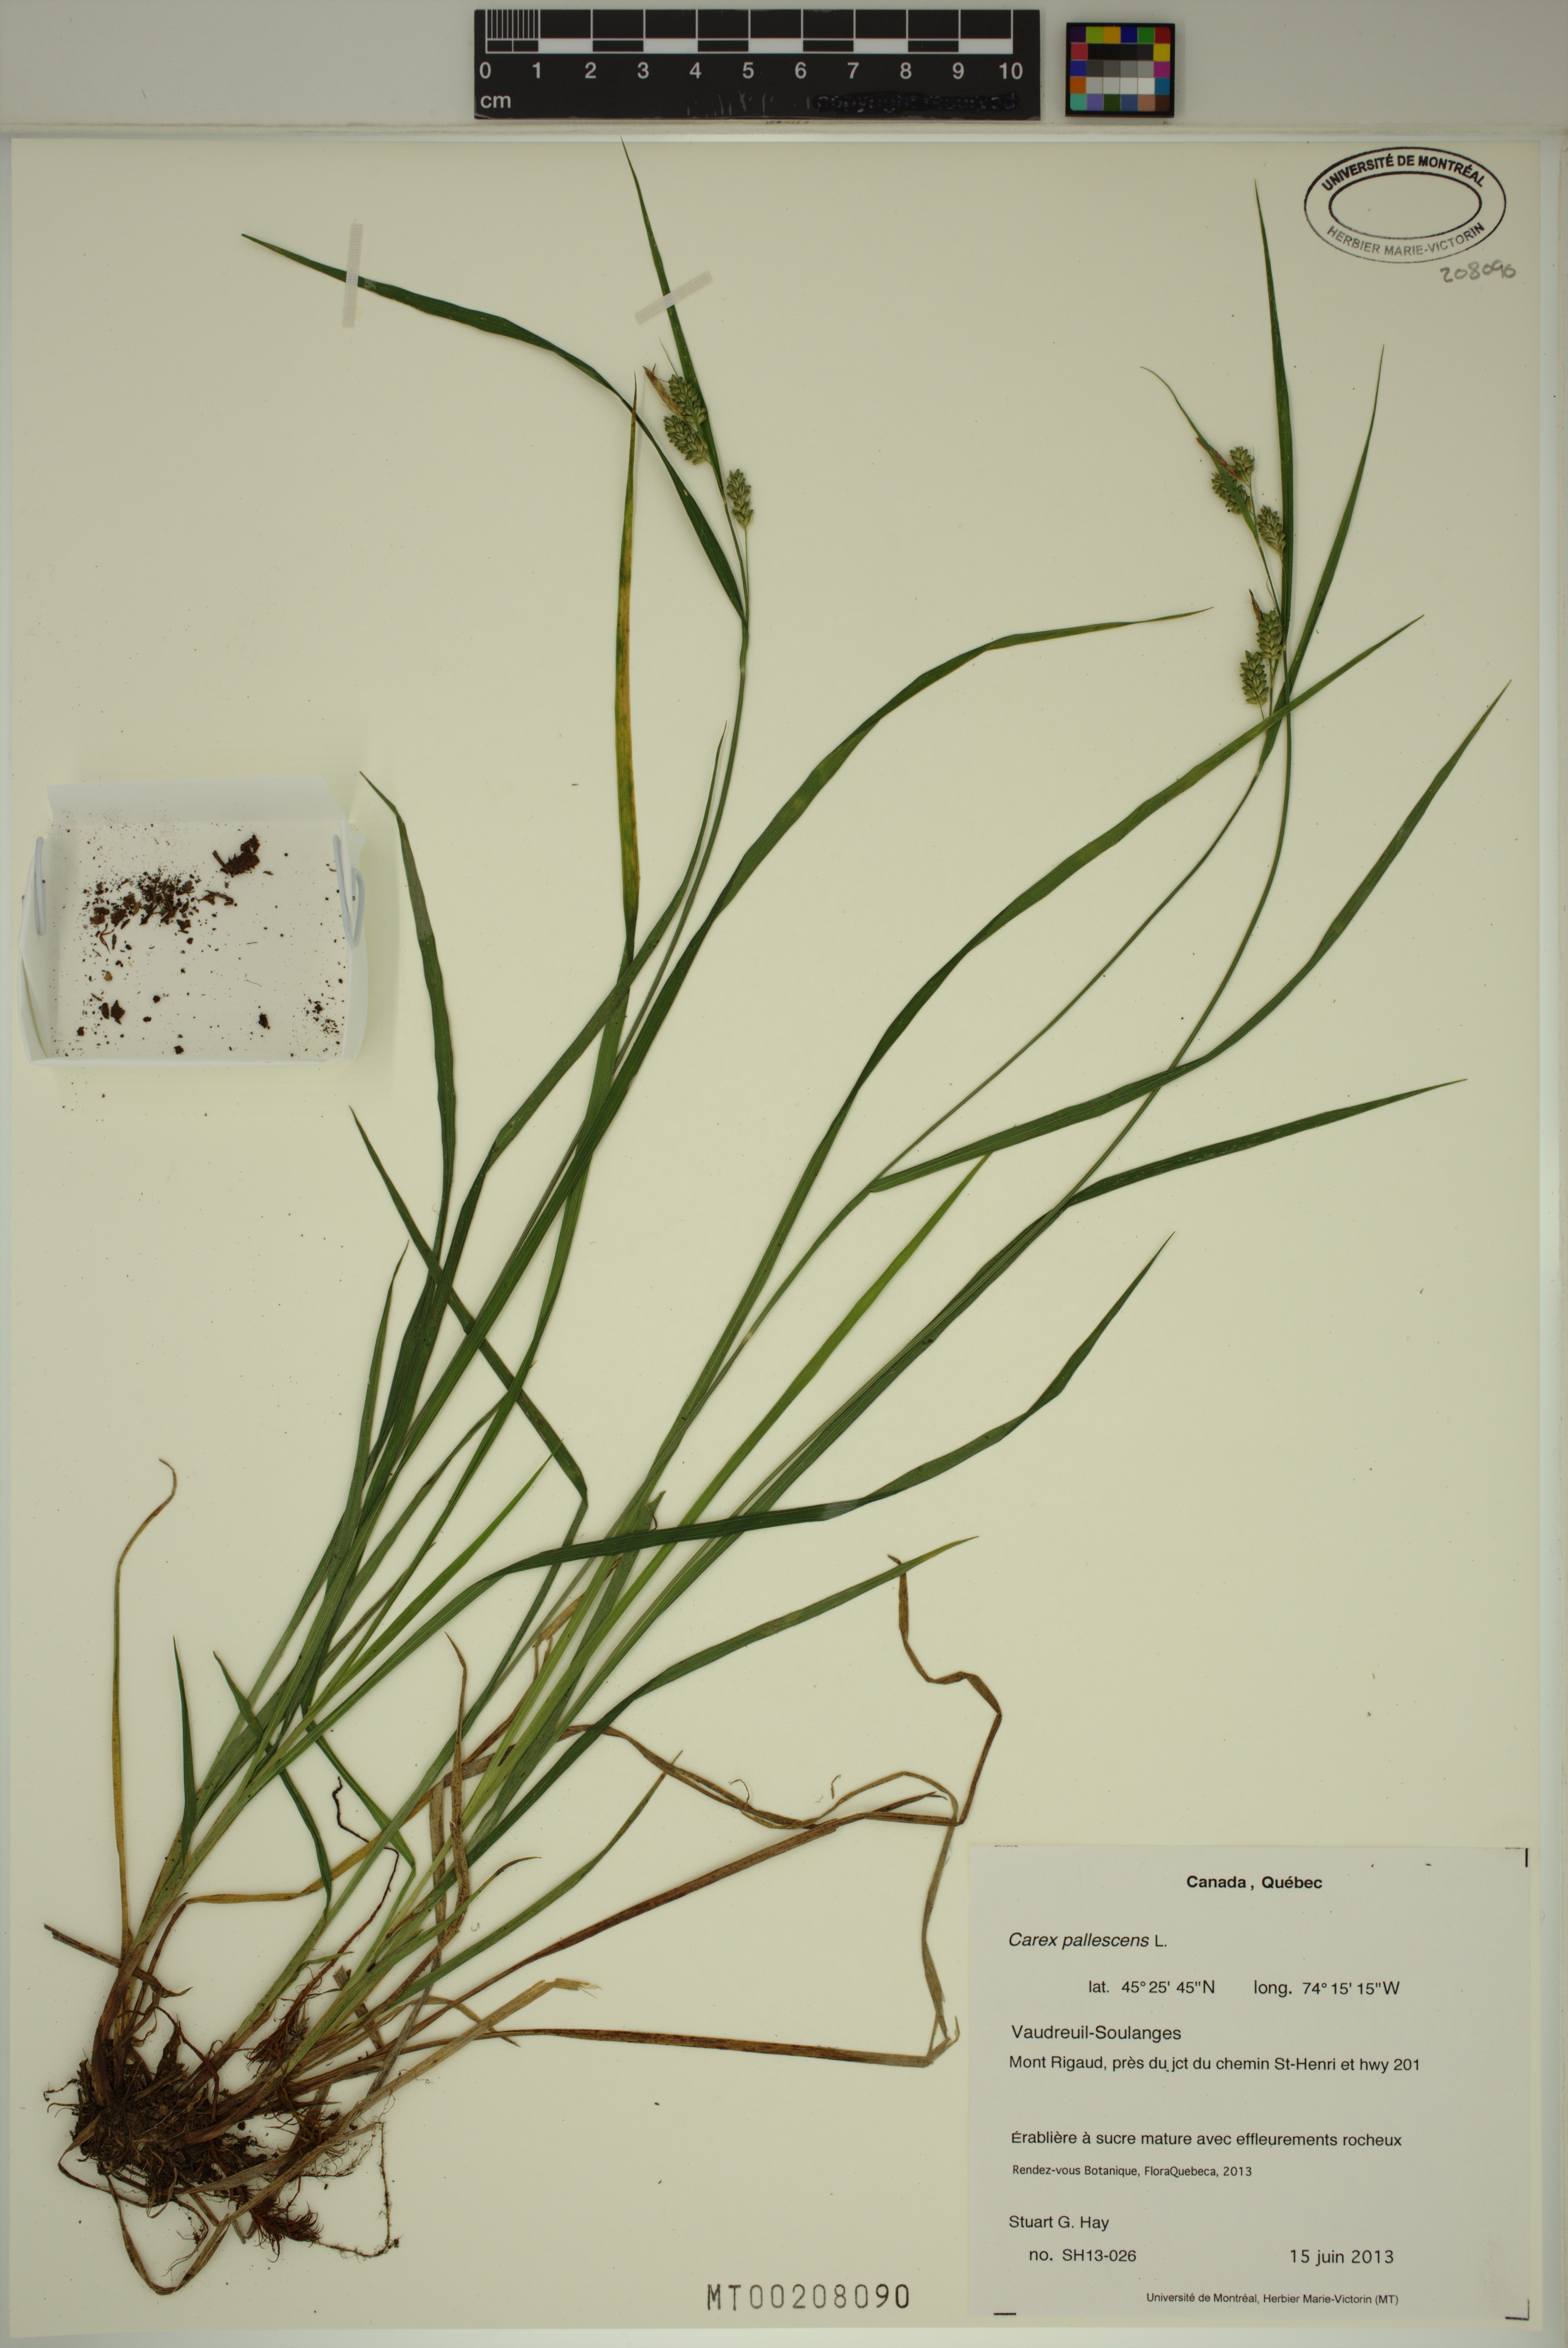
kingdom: Plantae
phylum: Tracheophyta
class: Liliopsida
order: Poales
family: Cyperaceae
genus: Carex
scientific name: Carex pallescens
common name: Pale sedge
